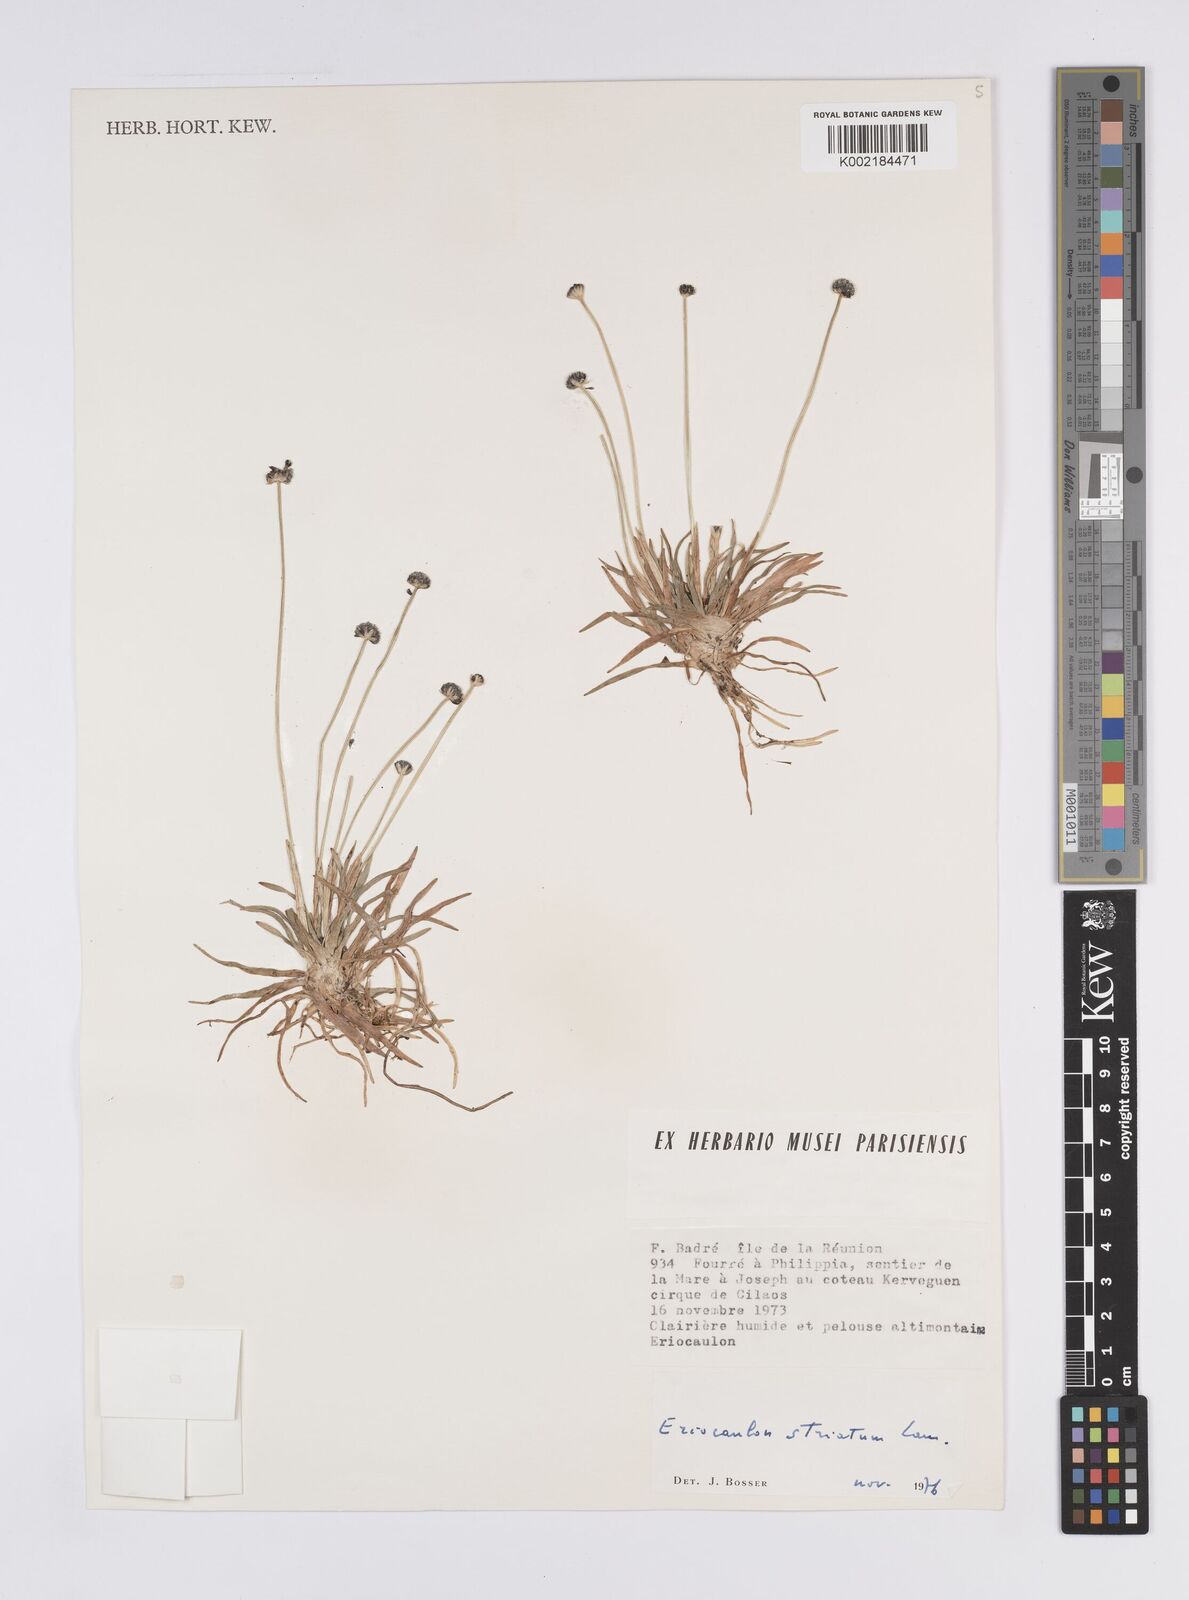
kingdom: Plantae
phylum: Tracheophyta
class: Liliopsida
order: Poales
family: Eriocaulaceae
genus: Eriocaulon
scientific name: Eriocaulon striatum
